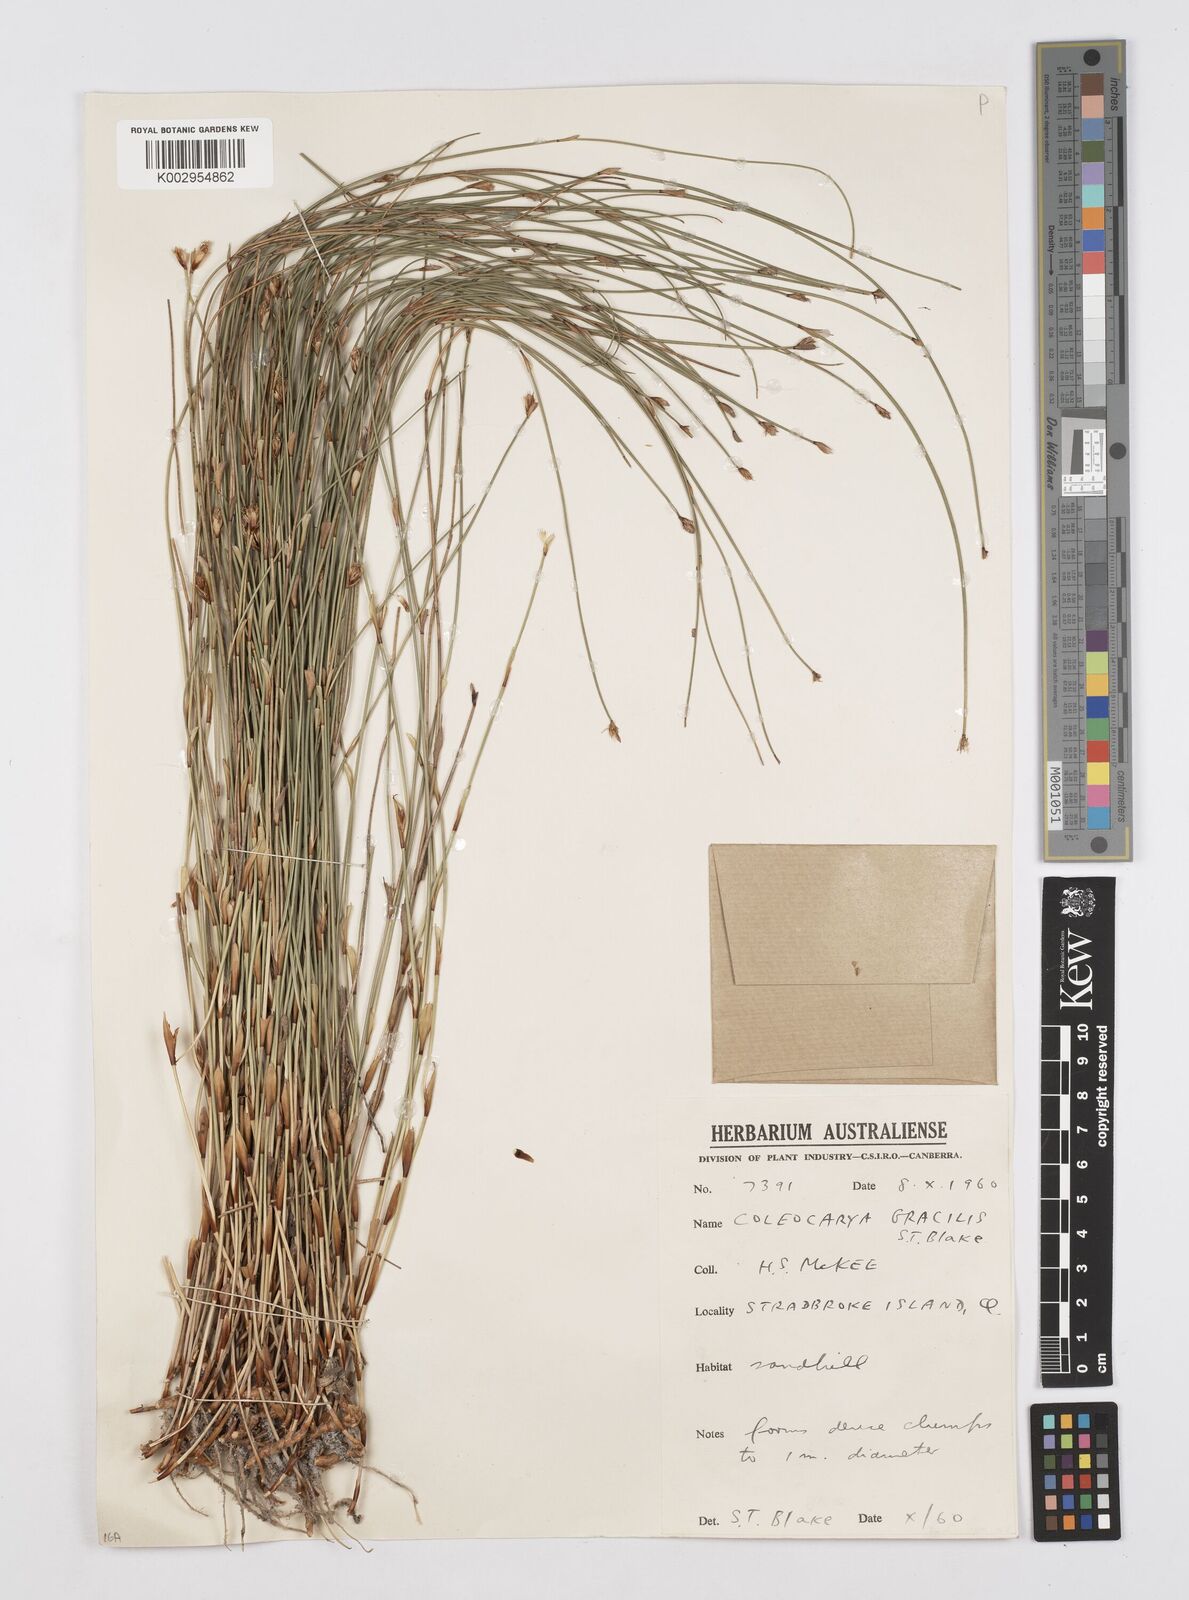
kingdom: Plantae
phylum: Tracheophyta
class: Liliopsida
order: Poales
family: Restionaceae
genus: Coleocarya
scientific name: Coleocarya gracilis
